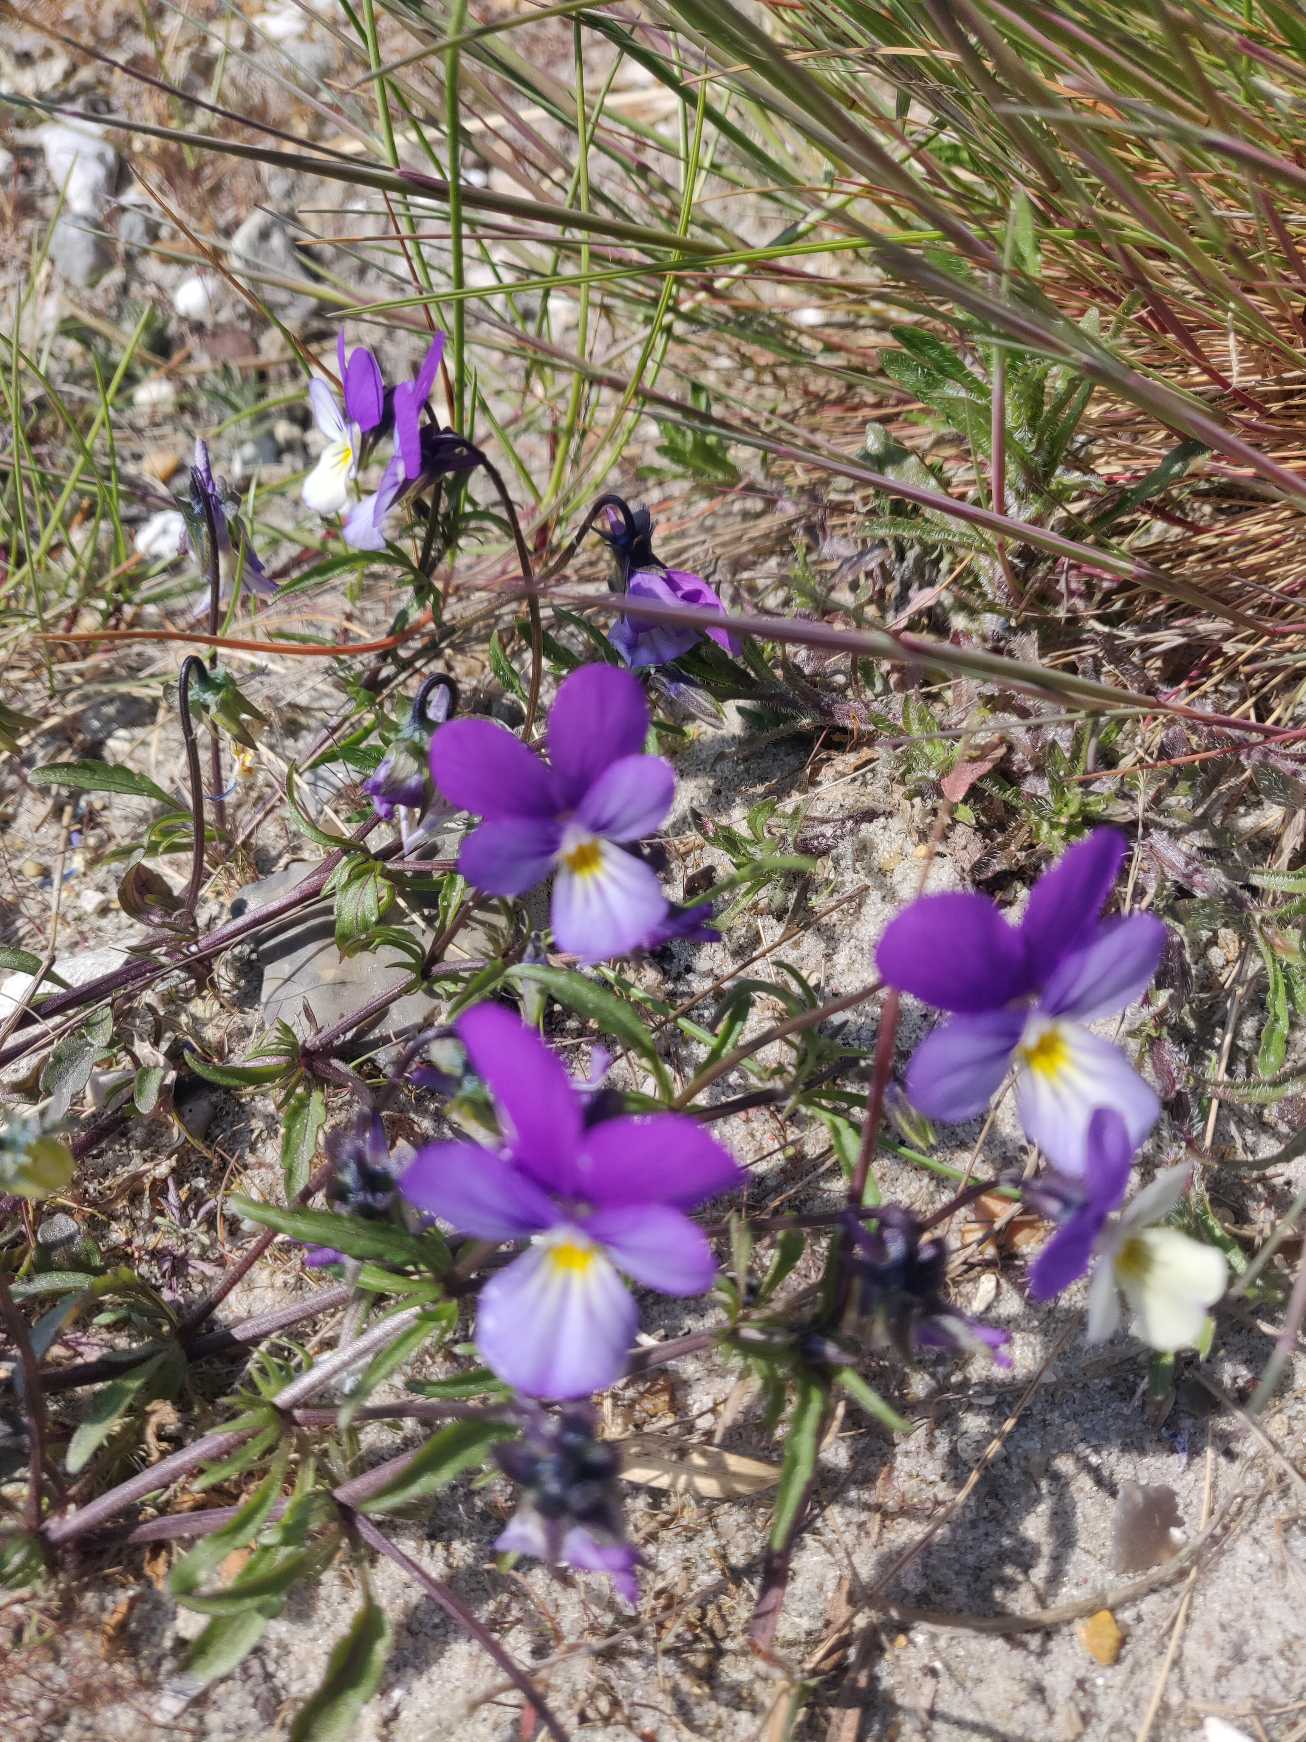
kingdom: Plantae
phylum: Tracheophyta
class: Magnoliopsida
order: Malpighiales
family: Violaceae
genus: Viola
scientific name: Viola tricolor
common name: Stedmoderblomst
